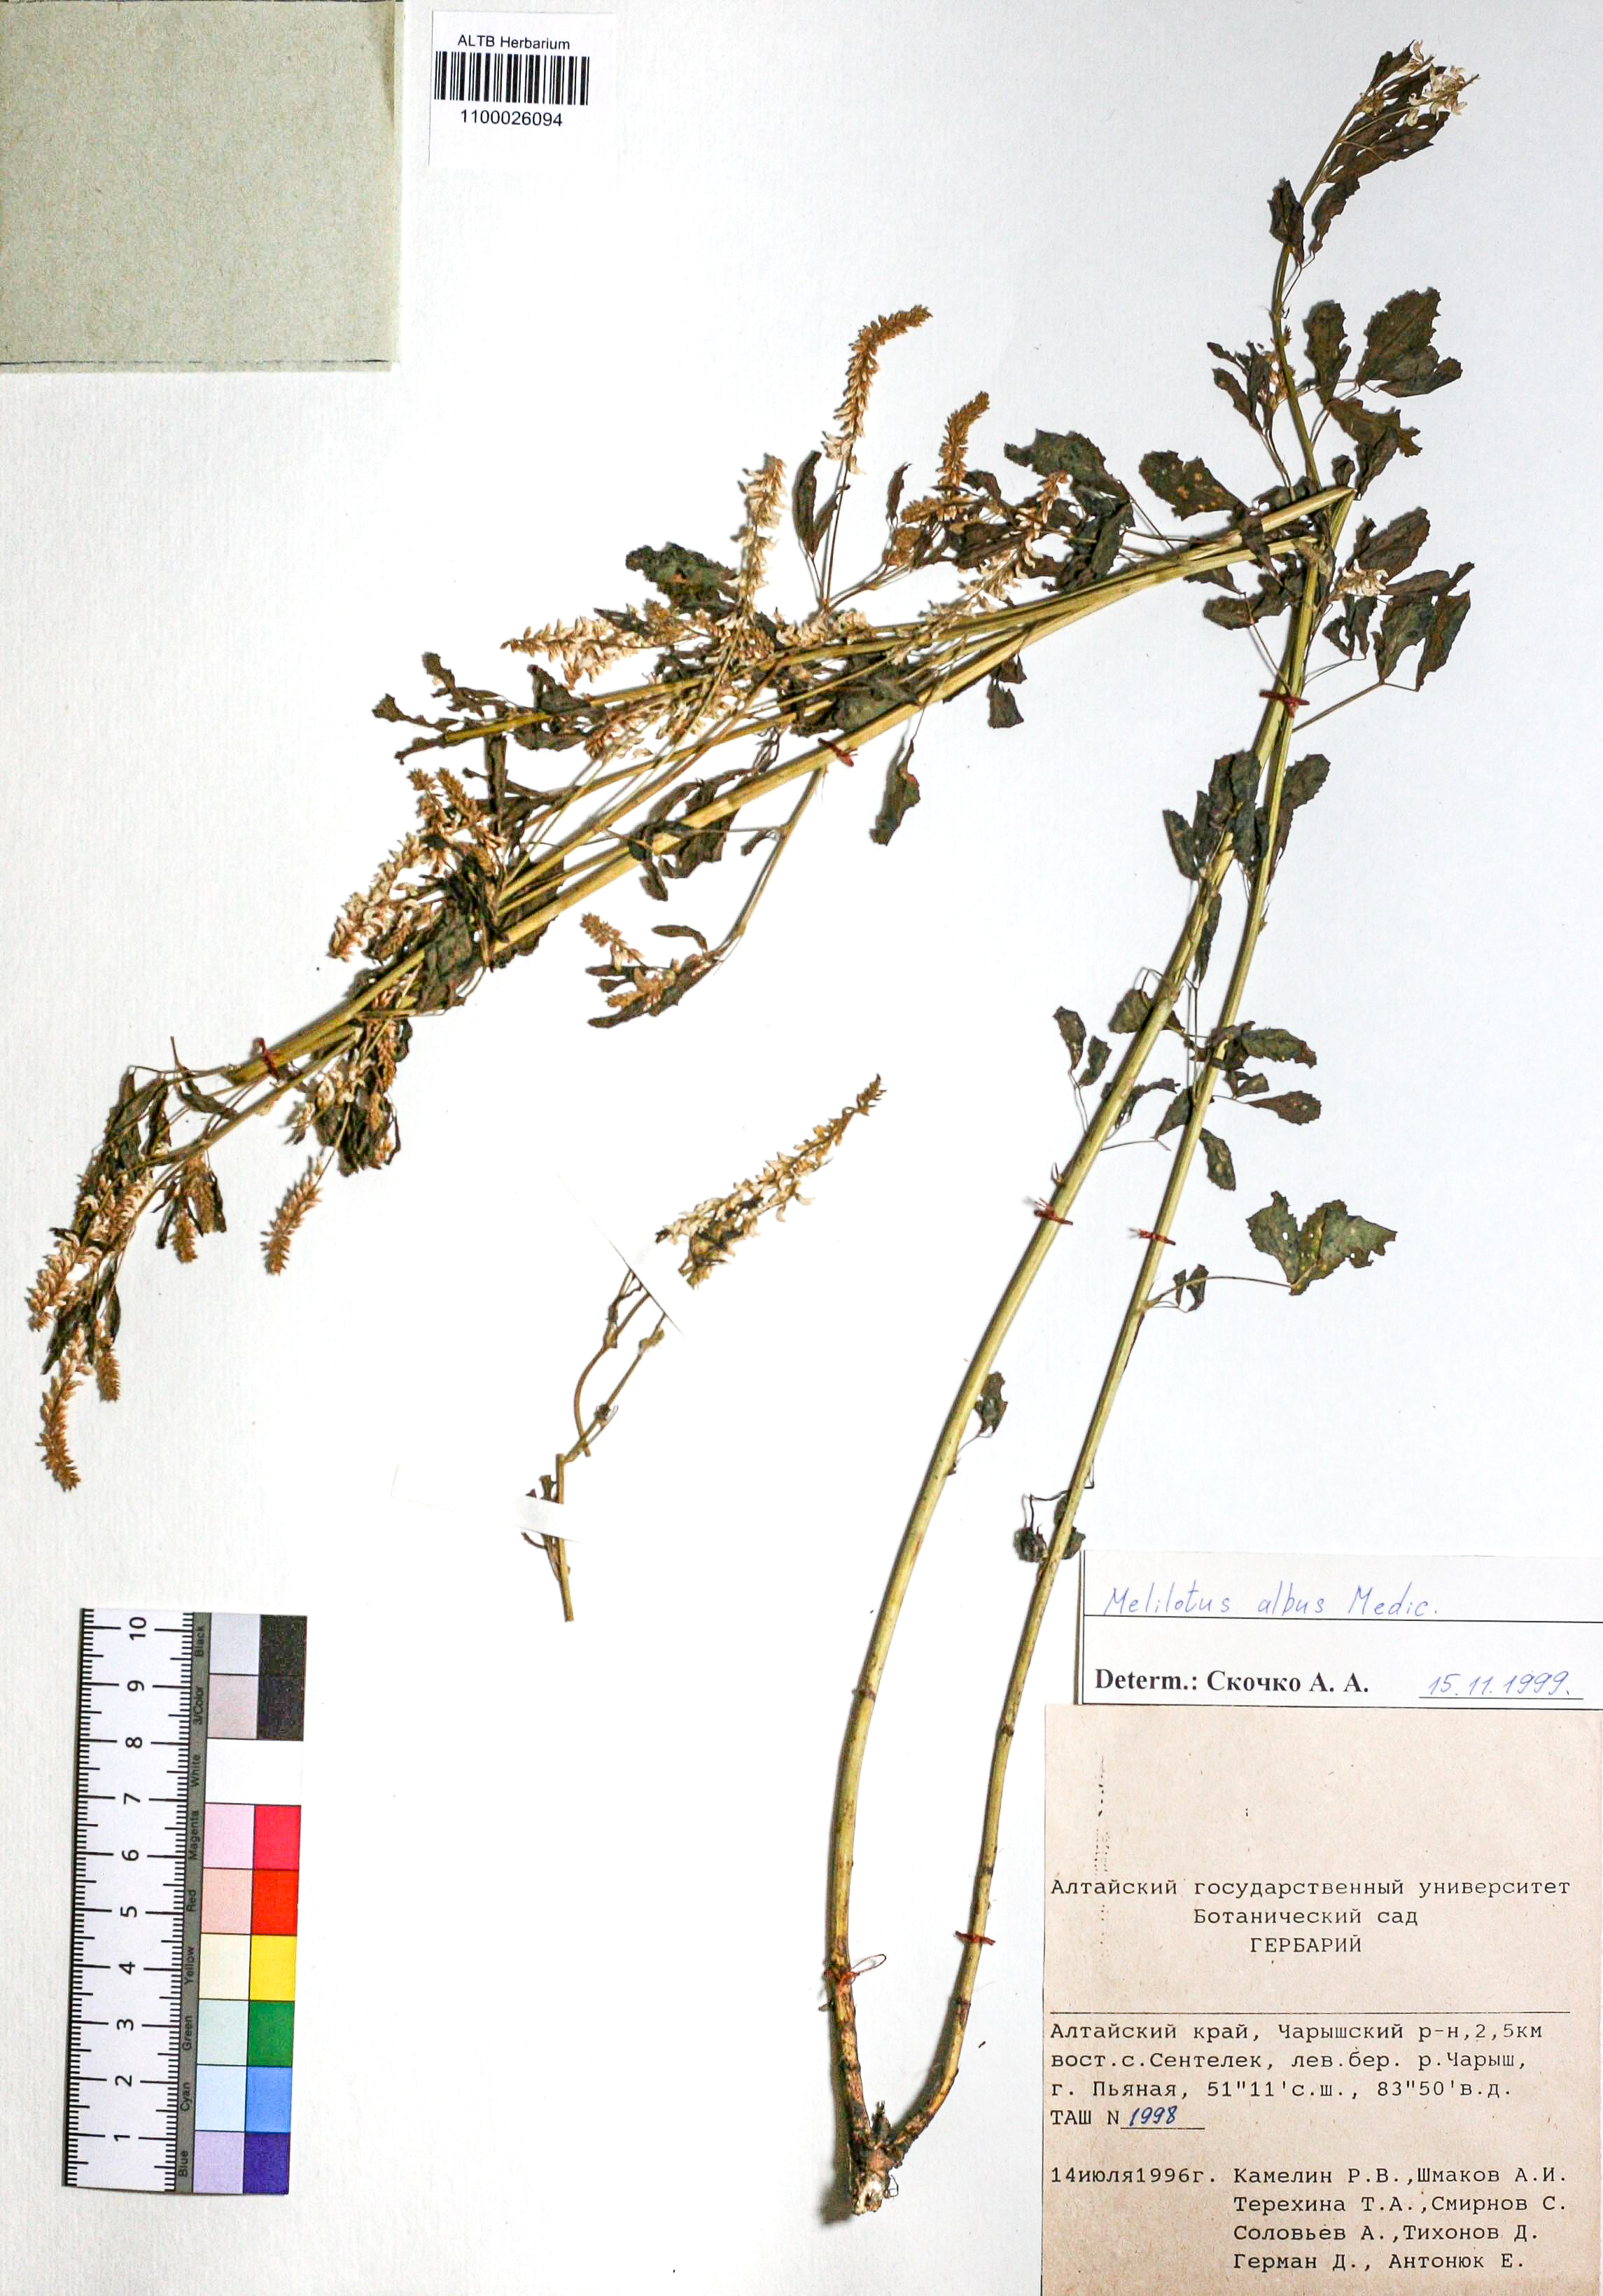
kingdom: Plantae
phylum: Tracheophyta
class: Magnoliopsida
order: Fabales
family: Fabaceae
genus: Melilotus
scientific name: Melilotus albus
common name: White melilot
